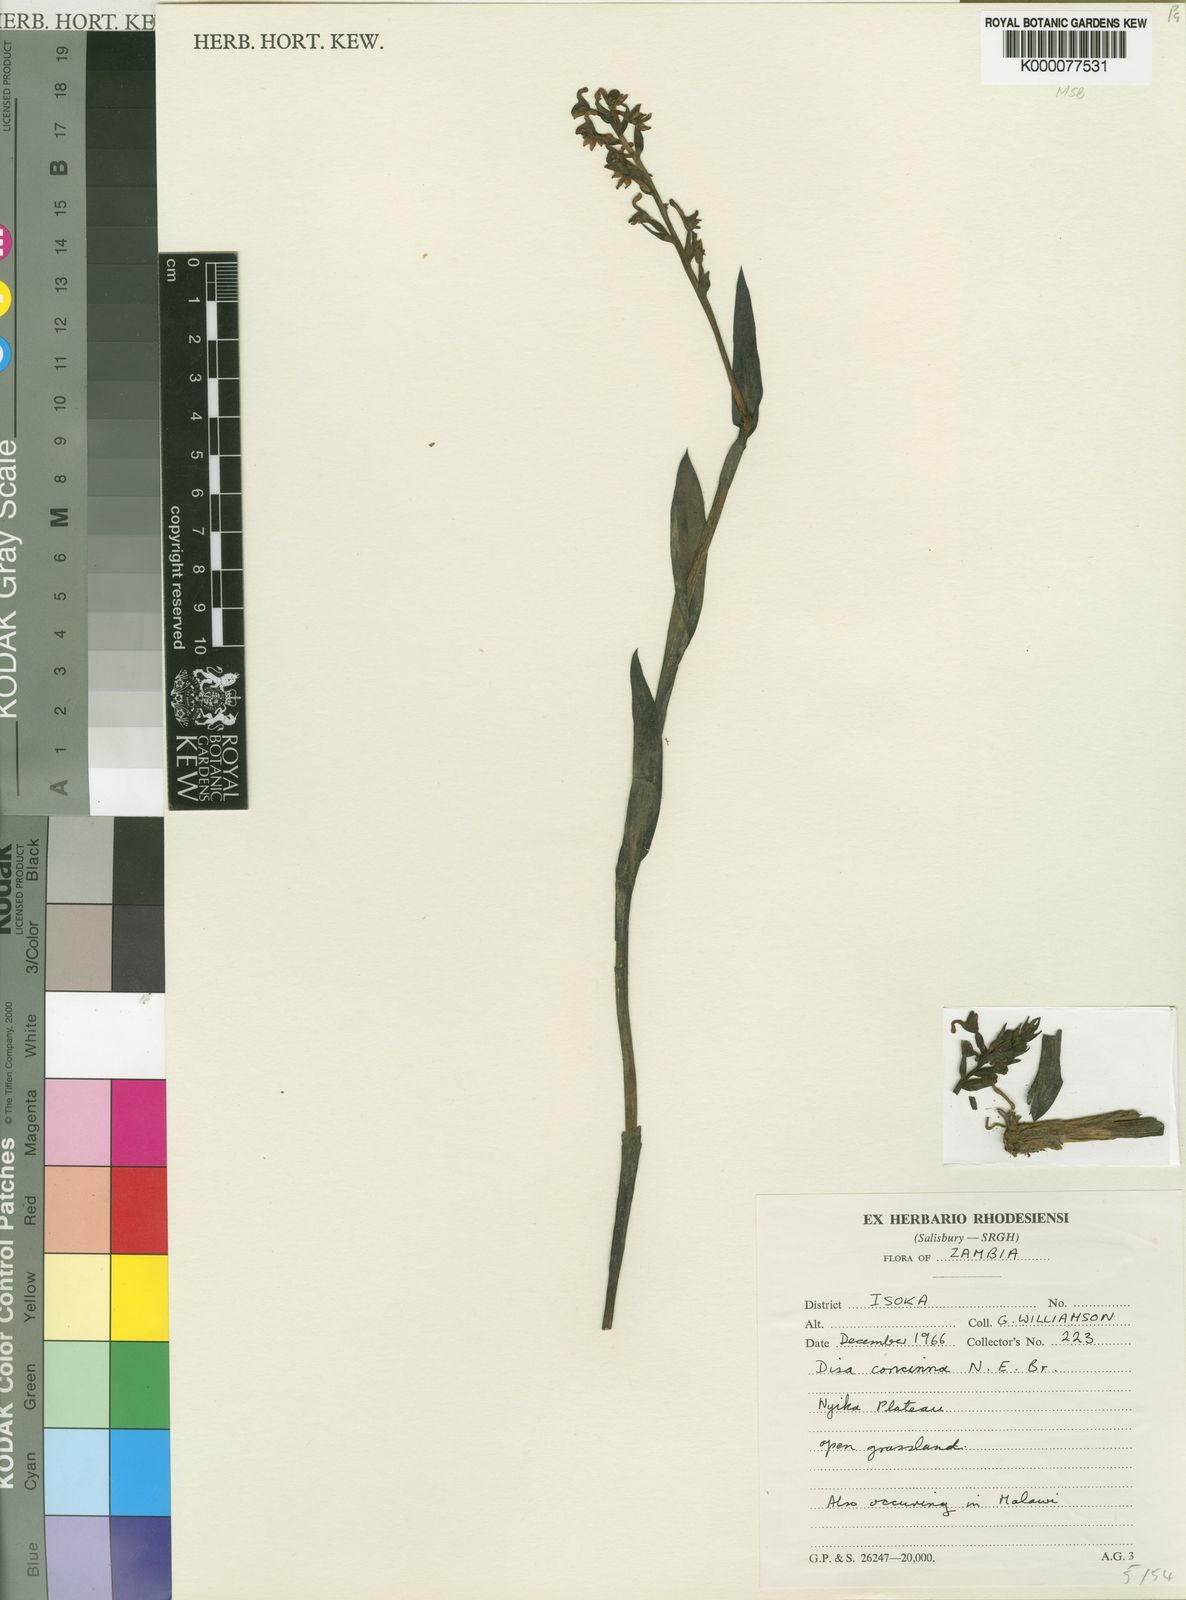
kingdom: Plantae
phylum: Tracheophyta
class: Liliopsida
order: Asparagales
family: Orchidaceae
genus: Disa
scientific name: Disa nyikensis
